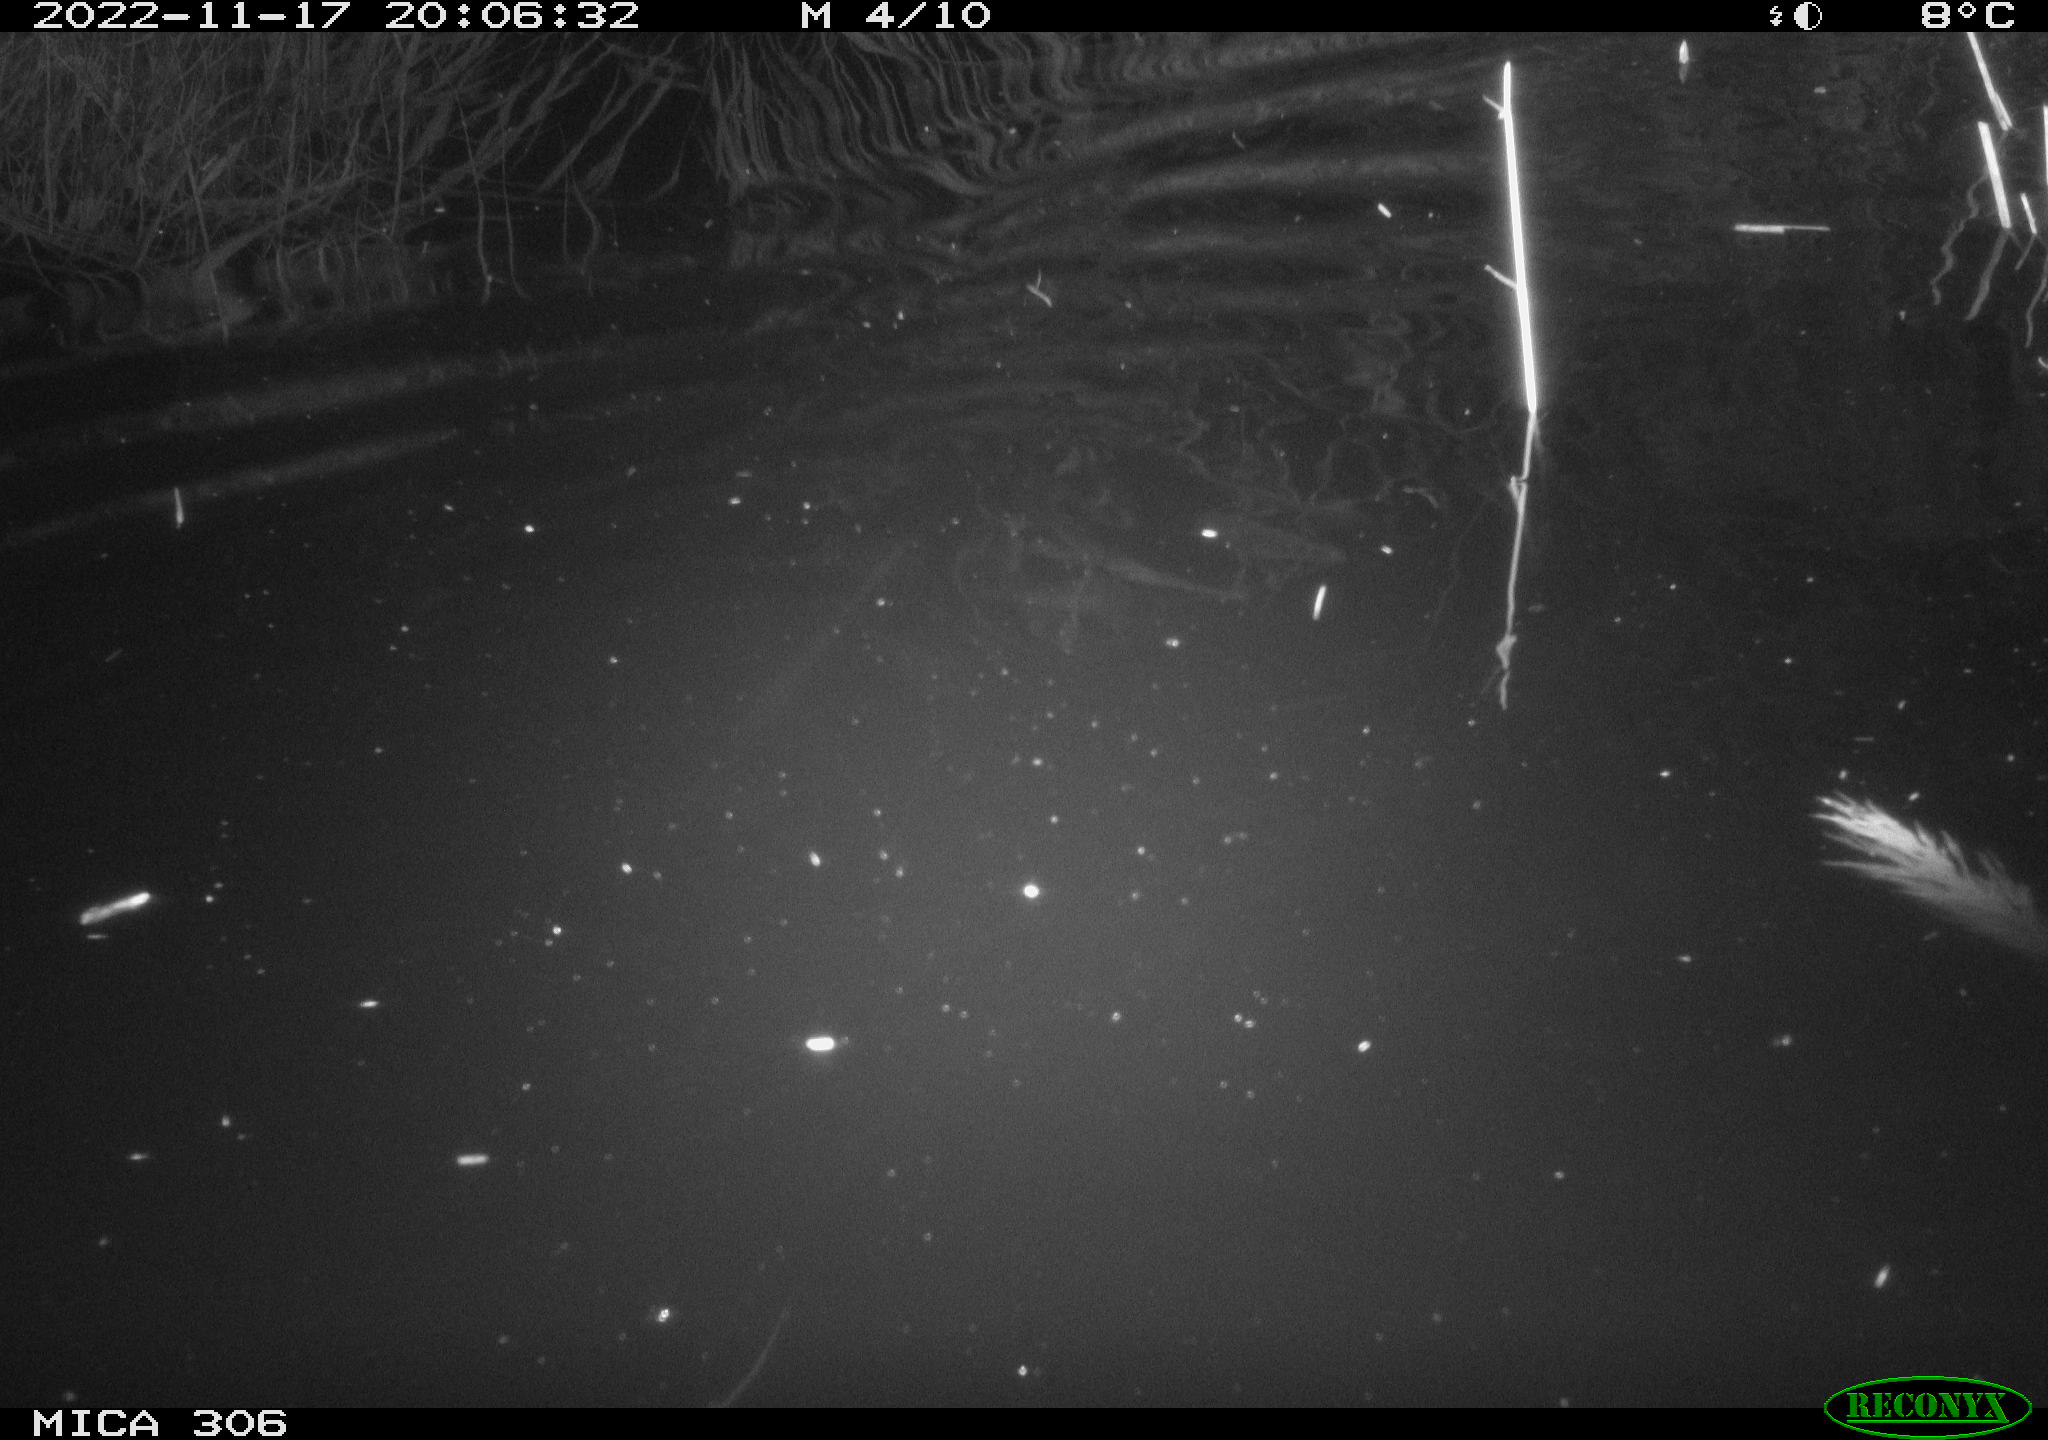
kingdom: Animalia
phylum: Chordata
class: Mammalia
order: Rodentia
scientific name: Rodentia
